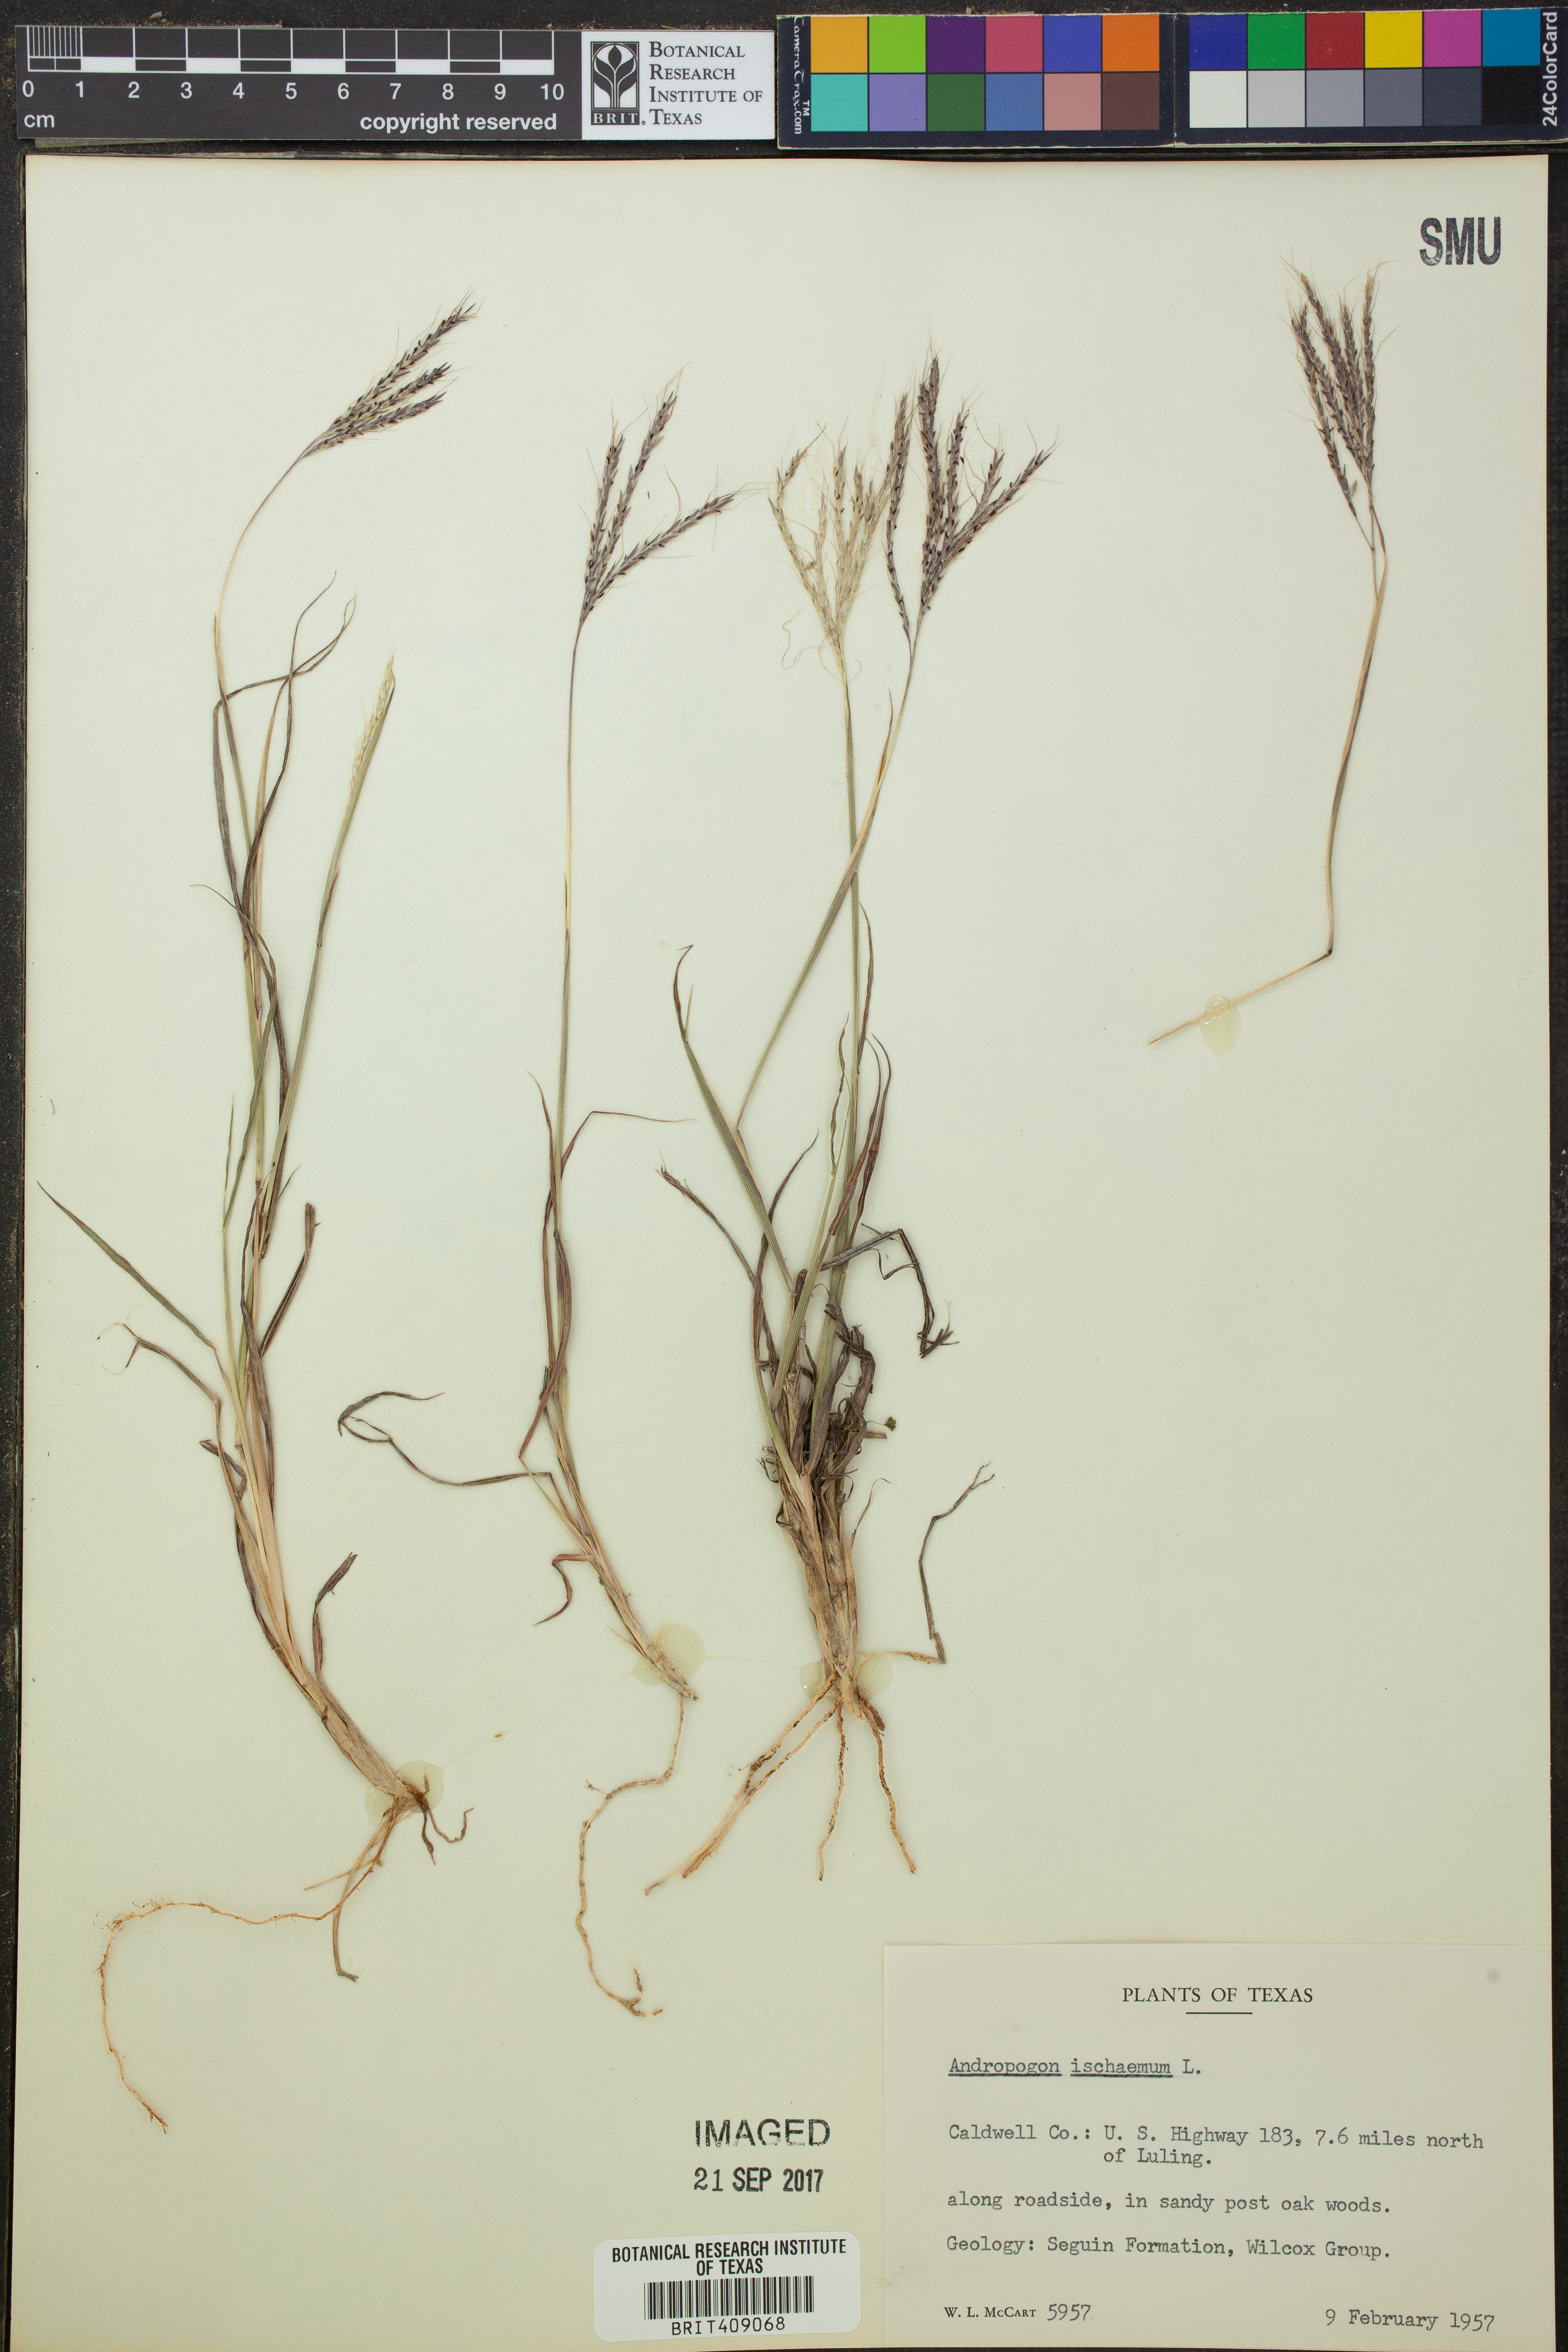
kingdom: Plantae
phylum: Tracheophyta
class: Liliopsida
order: Poales
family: Poaceae
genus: Andropogon
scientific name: Andropogon ischaemum
